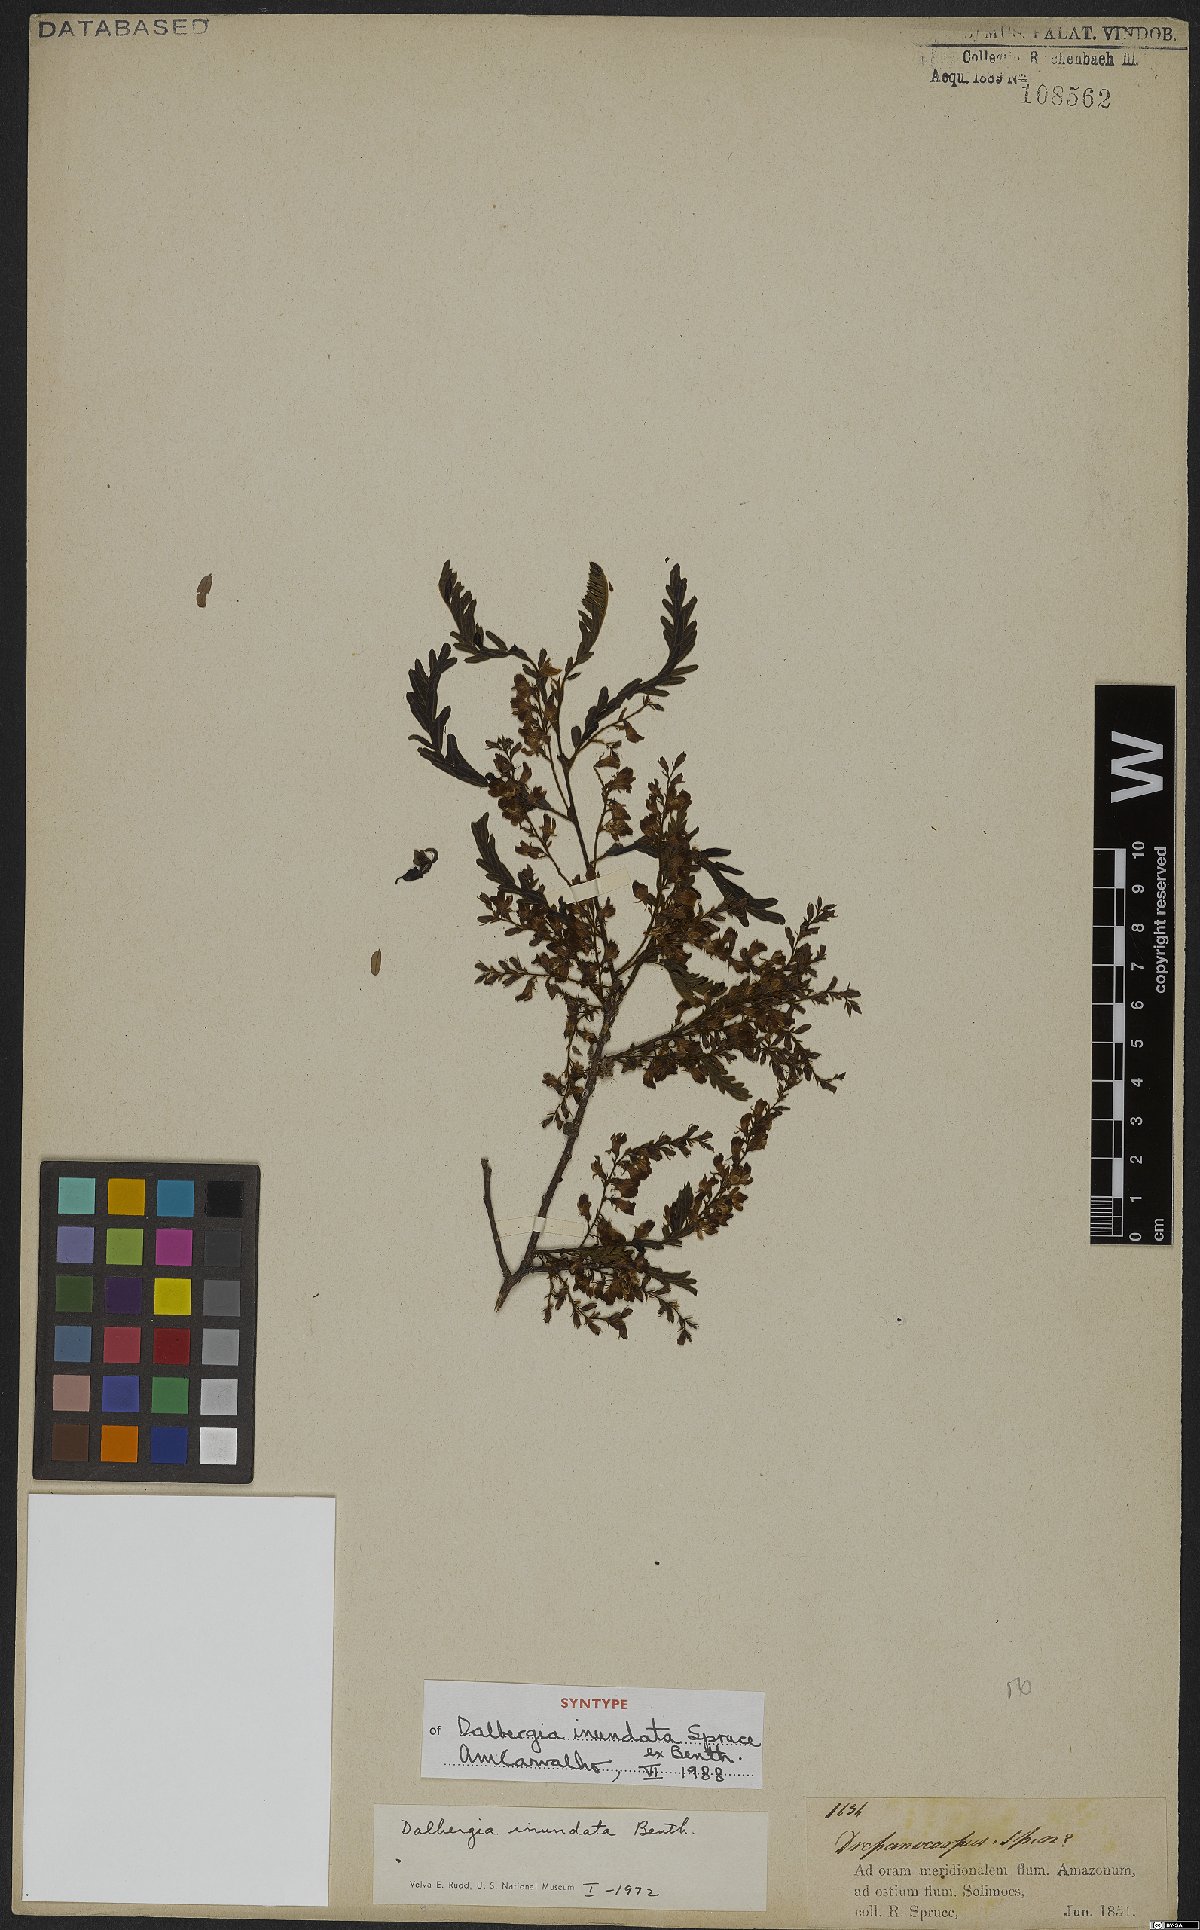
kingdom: Plantae
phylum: Tracheophyta
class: Magnoliopsida
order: Fabales
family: Fabaceae
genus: Dalbergia
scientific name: Dalbergia inundata
